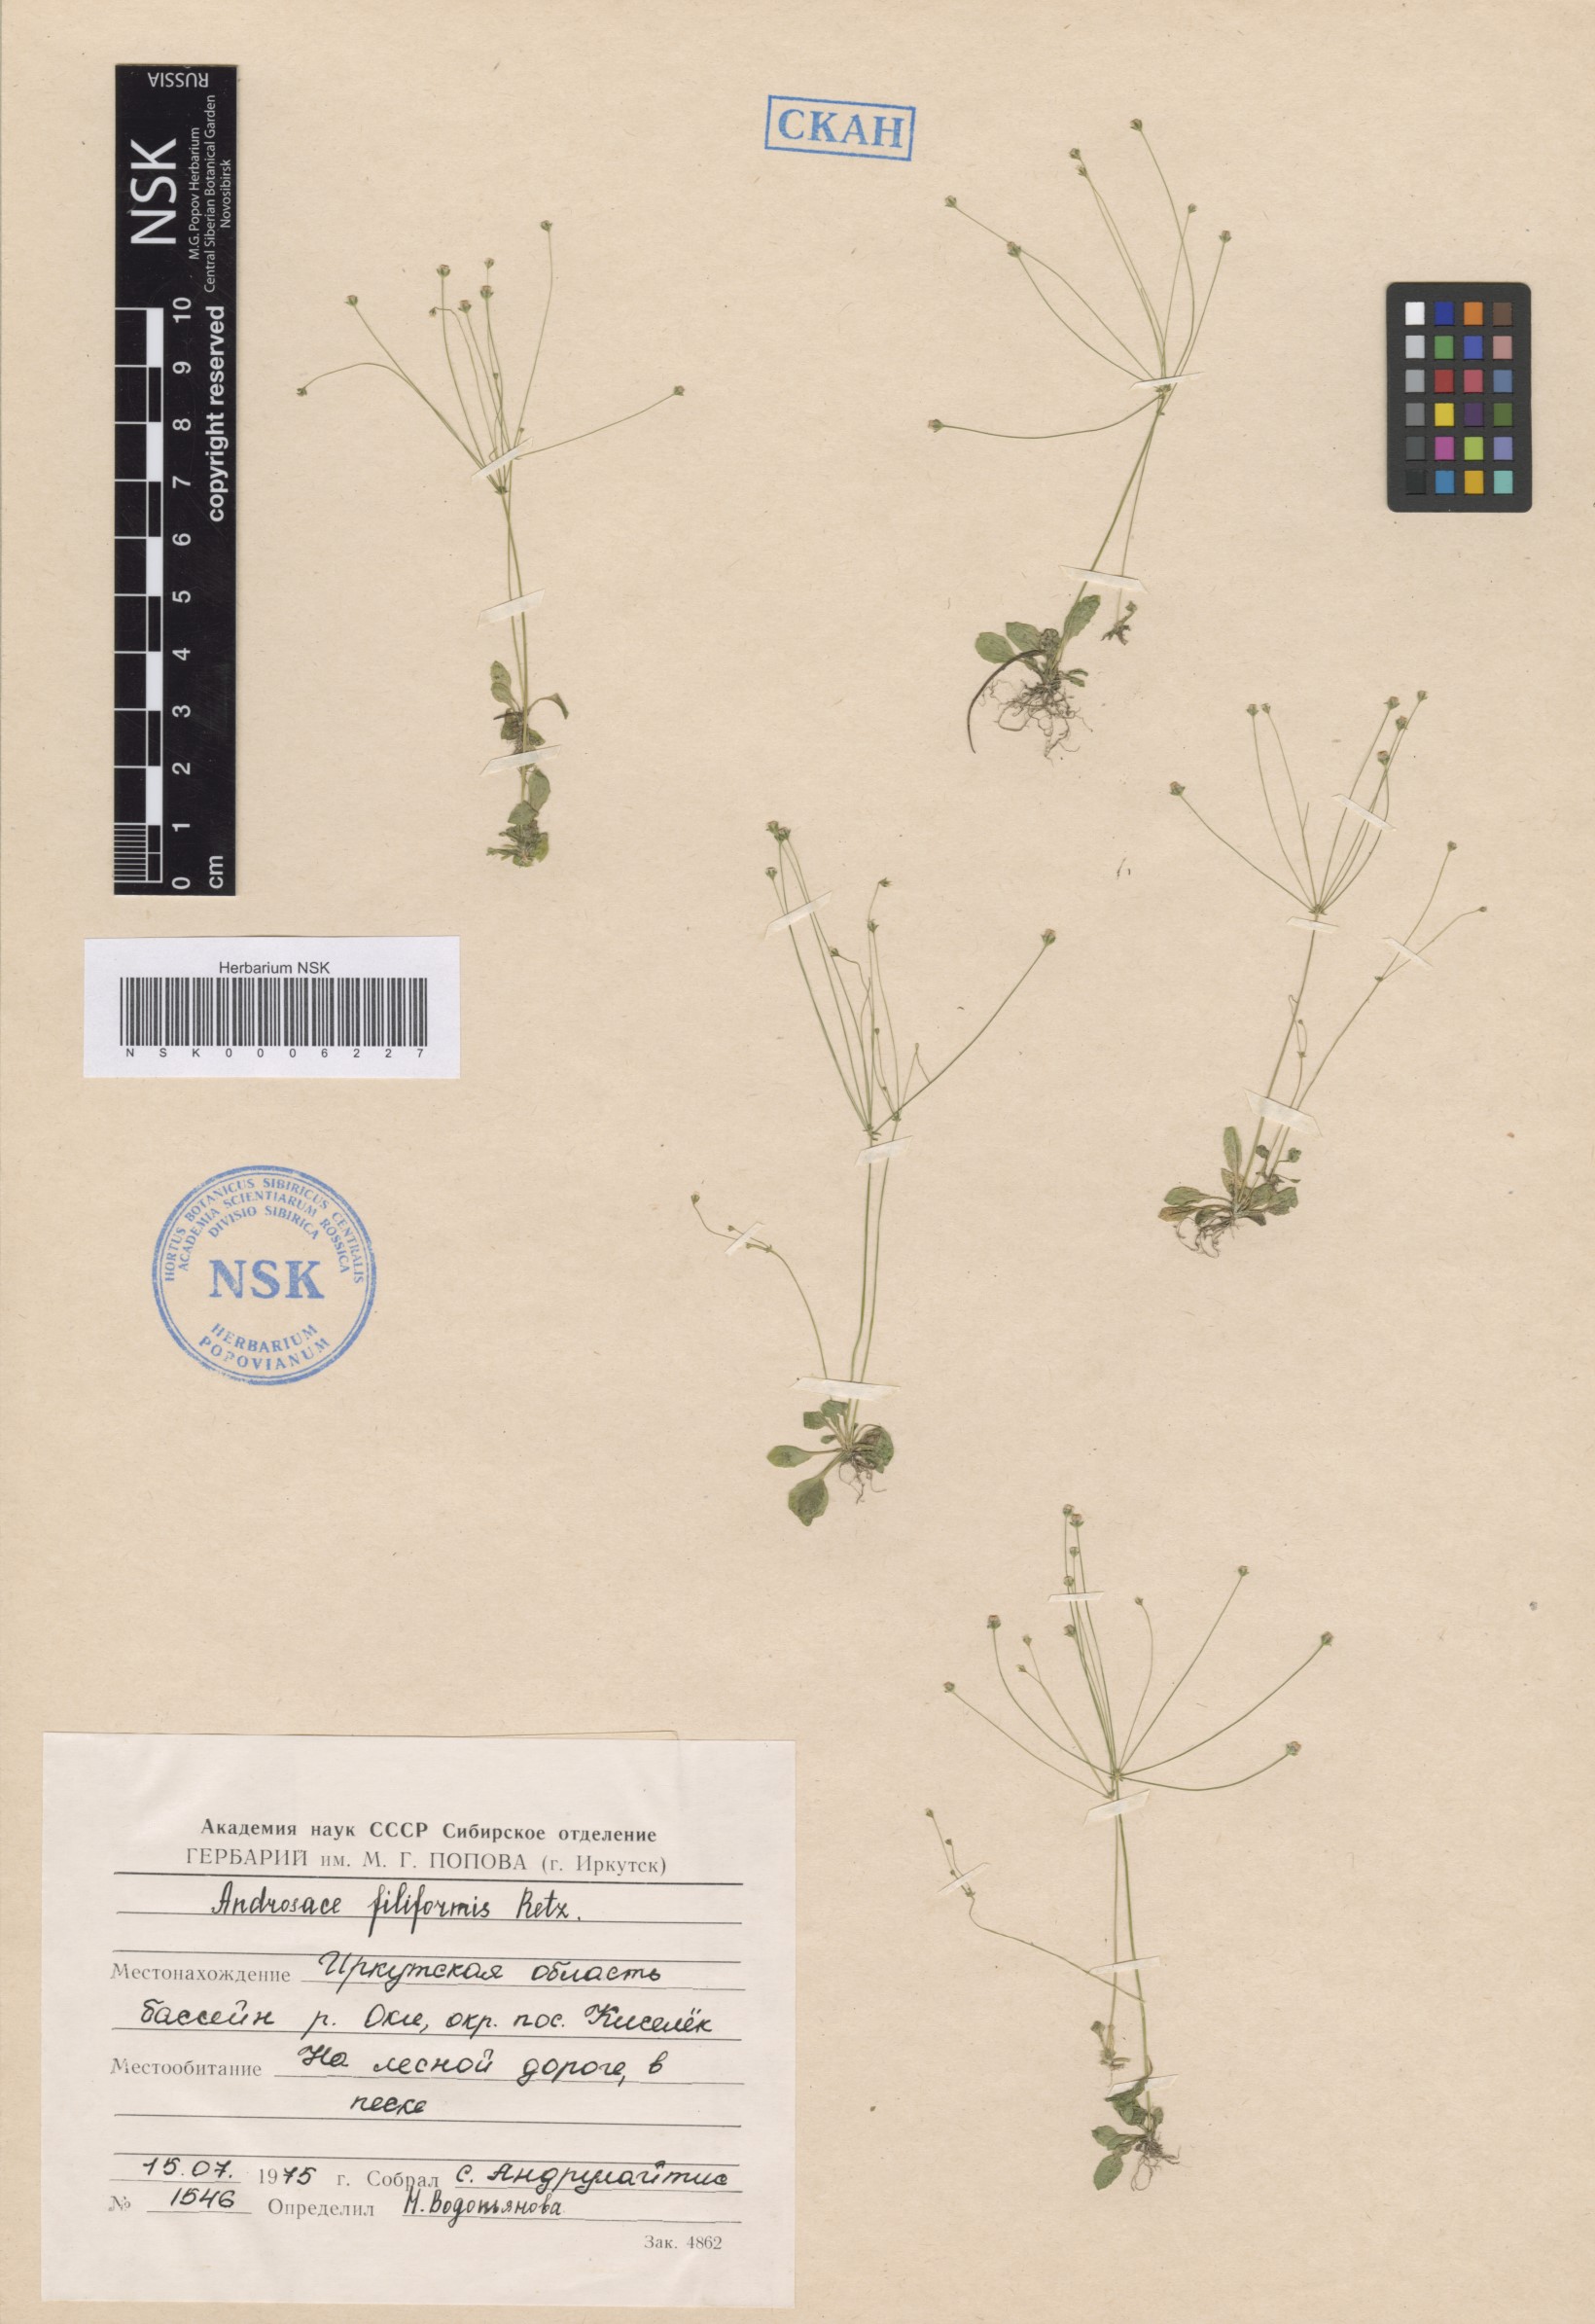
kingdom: Plantae
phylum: Tracheophyta
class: Magnoliopsida
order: Ericales
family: Primulaceae
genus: Androsace
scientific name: Androsace filiformis
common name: Filiform rock jasmine
